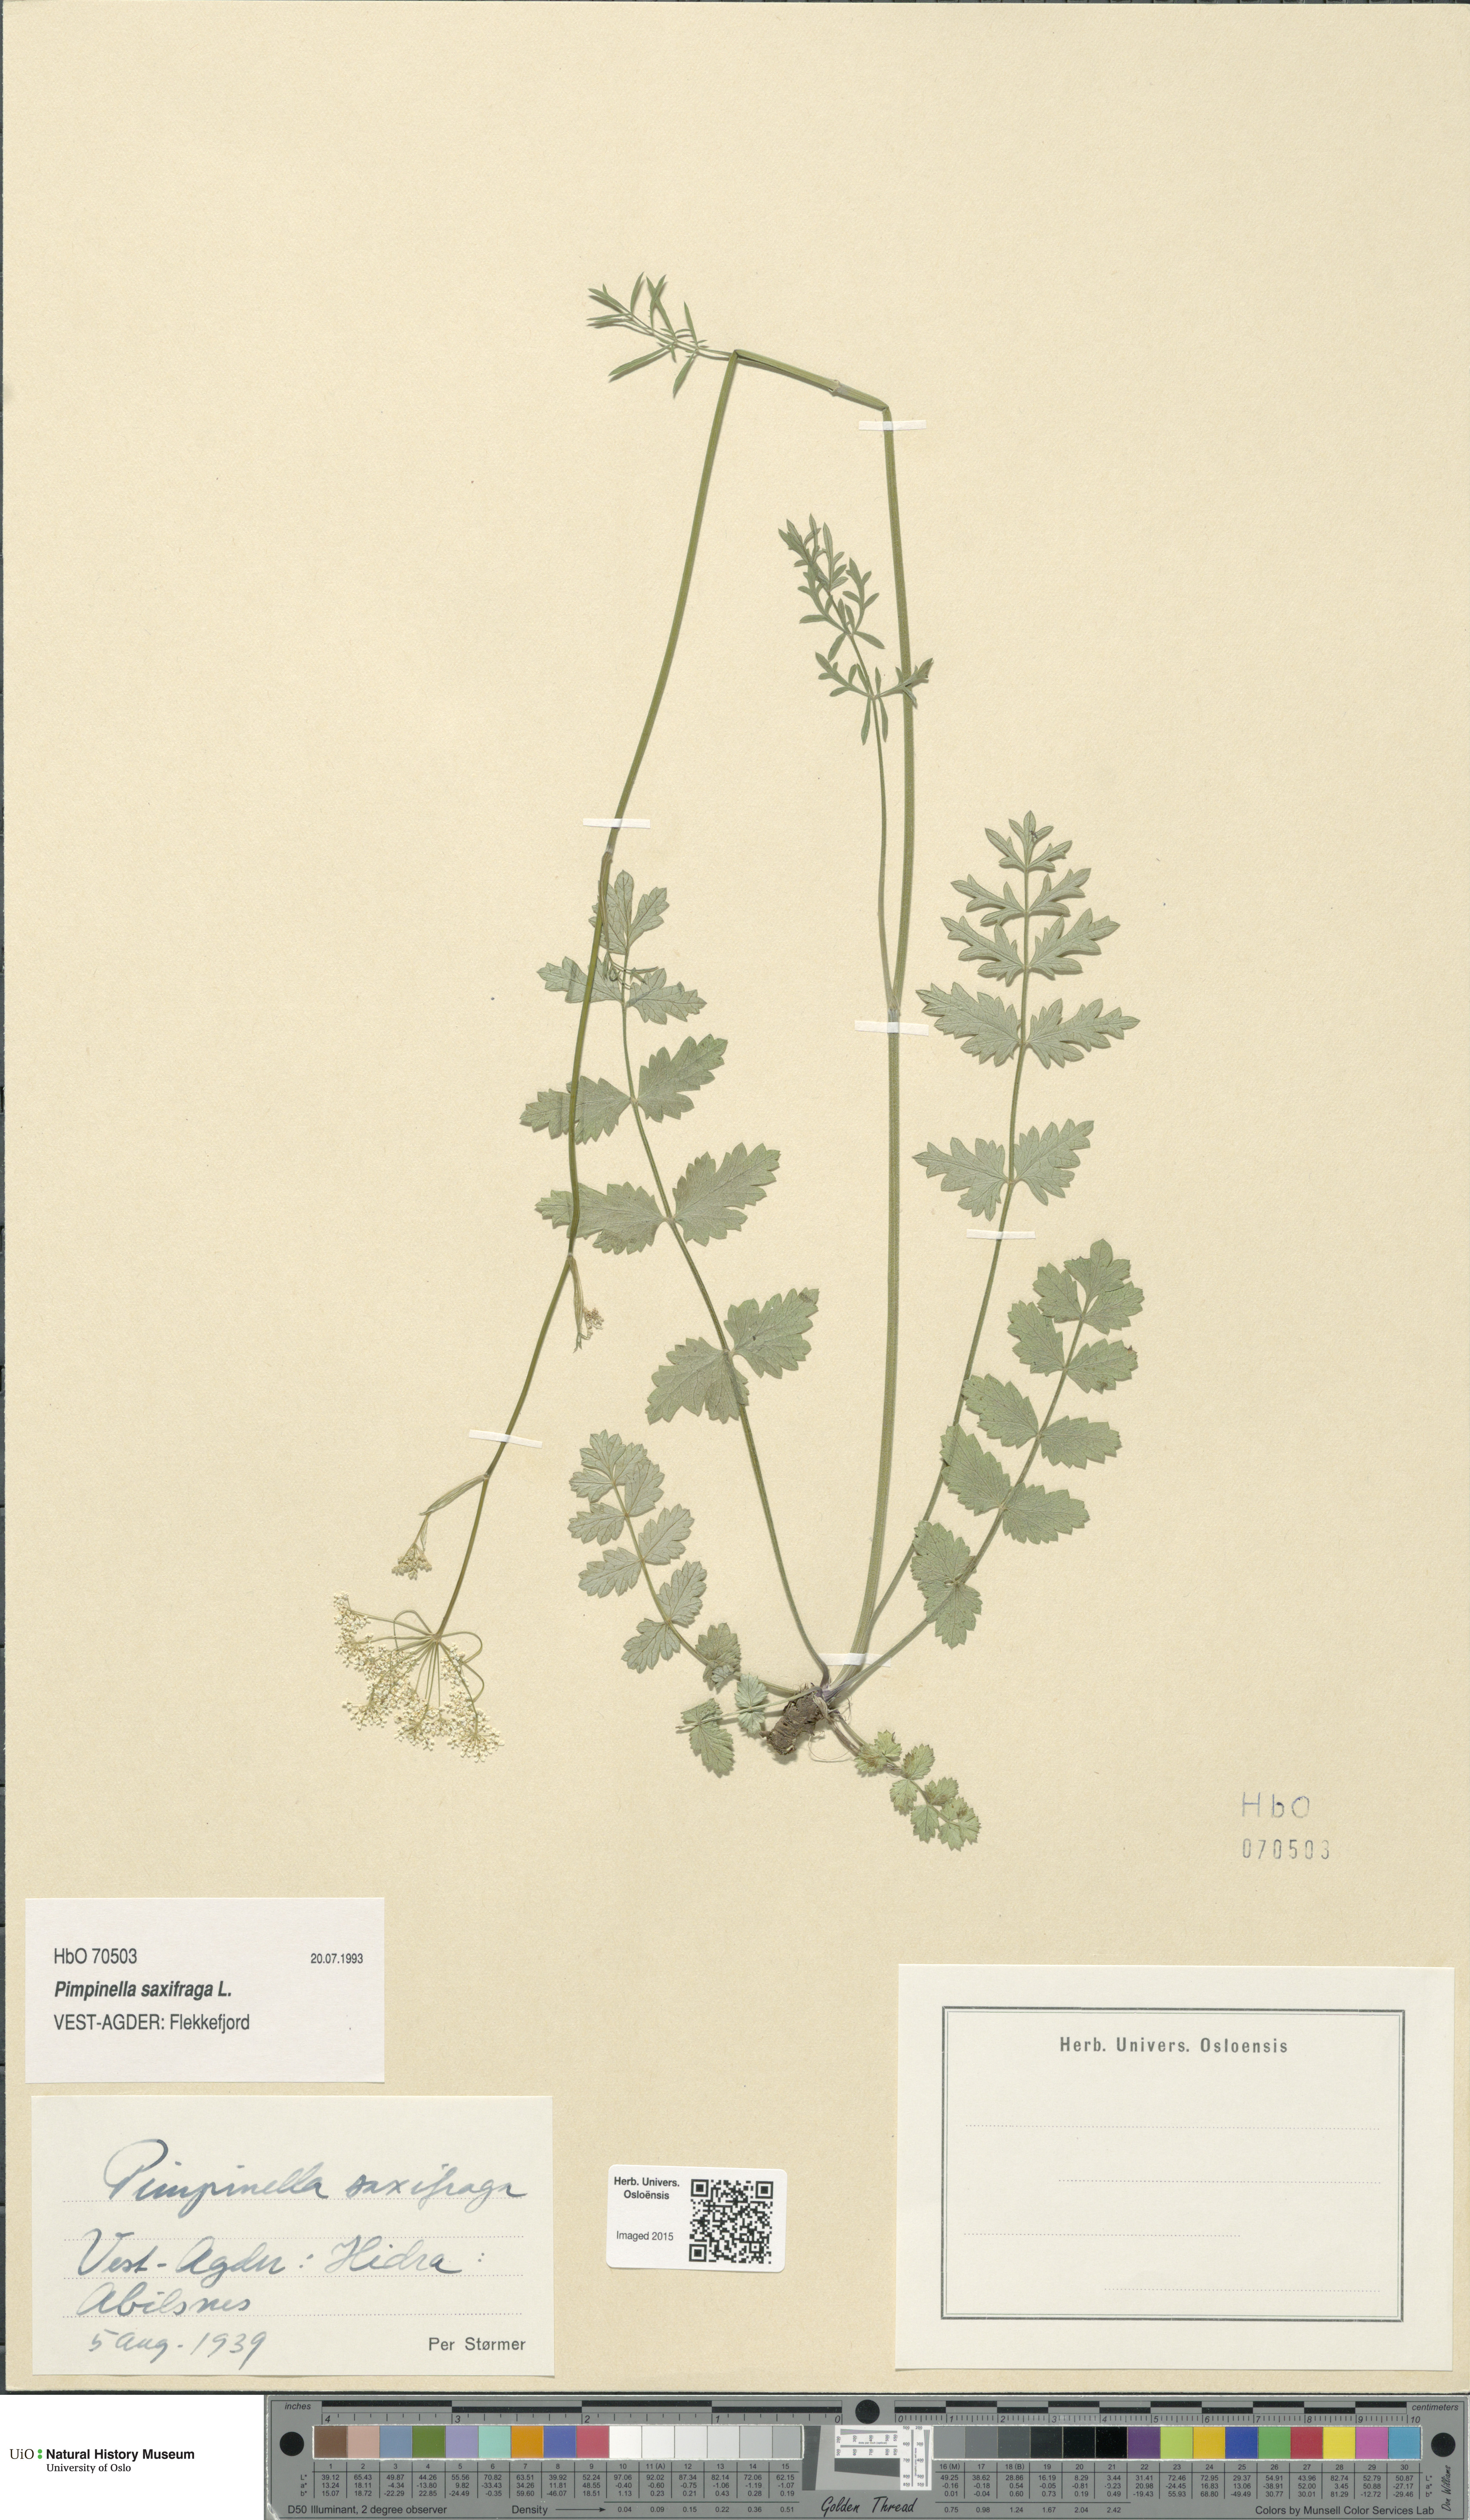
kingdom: Plantae
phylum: Tracheophyta
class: Magnoliopsida
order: Apiales
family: Apiaceae
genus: Pimpinella
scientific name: Pimpinella saxifraga
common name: Burnet-saxifrage
